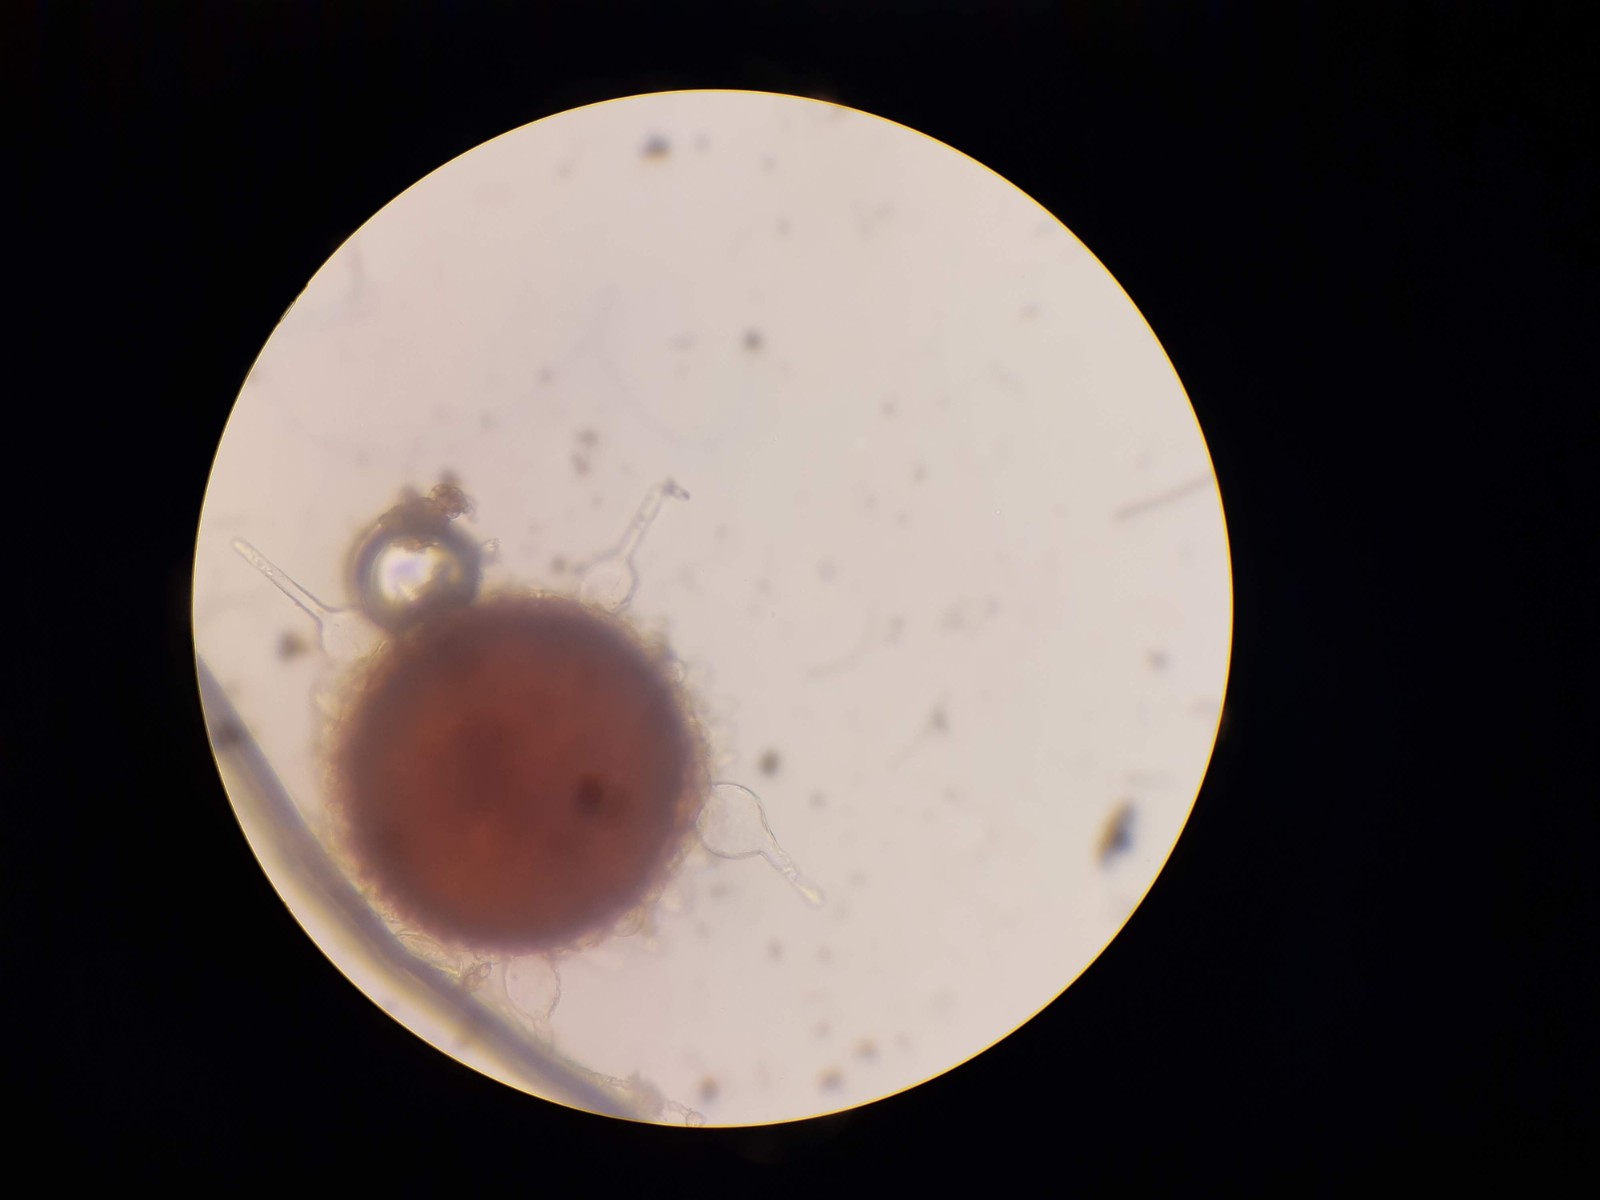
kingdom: Fungi
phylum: Ascomycota
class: Leotiomycetes
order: Helotiales
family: Erysiphaceae
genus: Phyllactinia
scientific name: Phyllactinia mali
